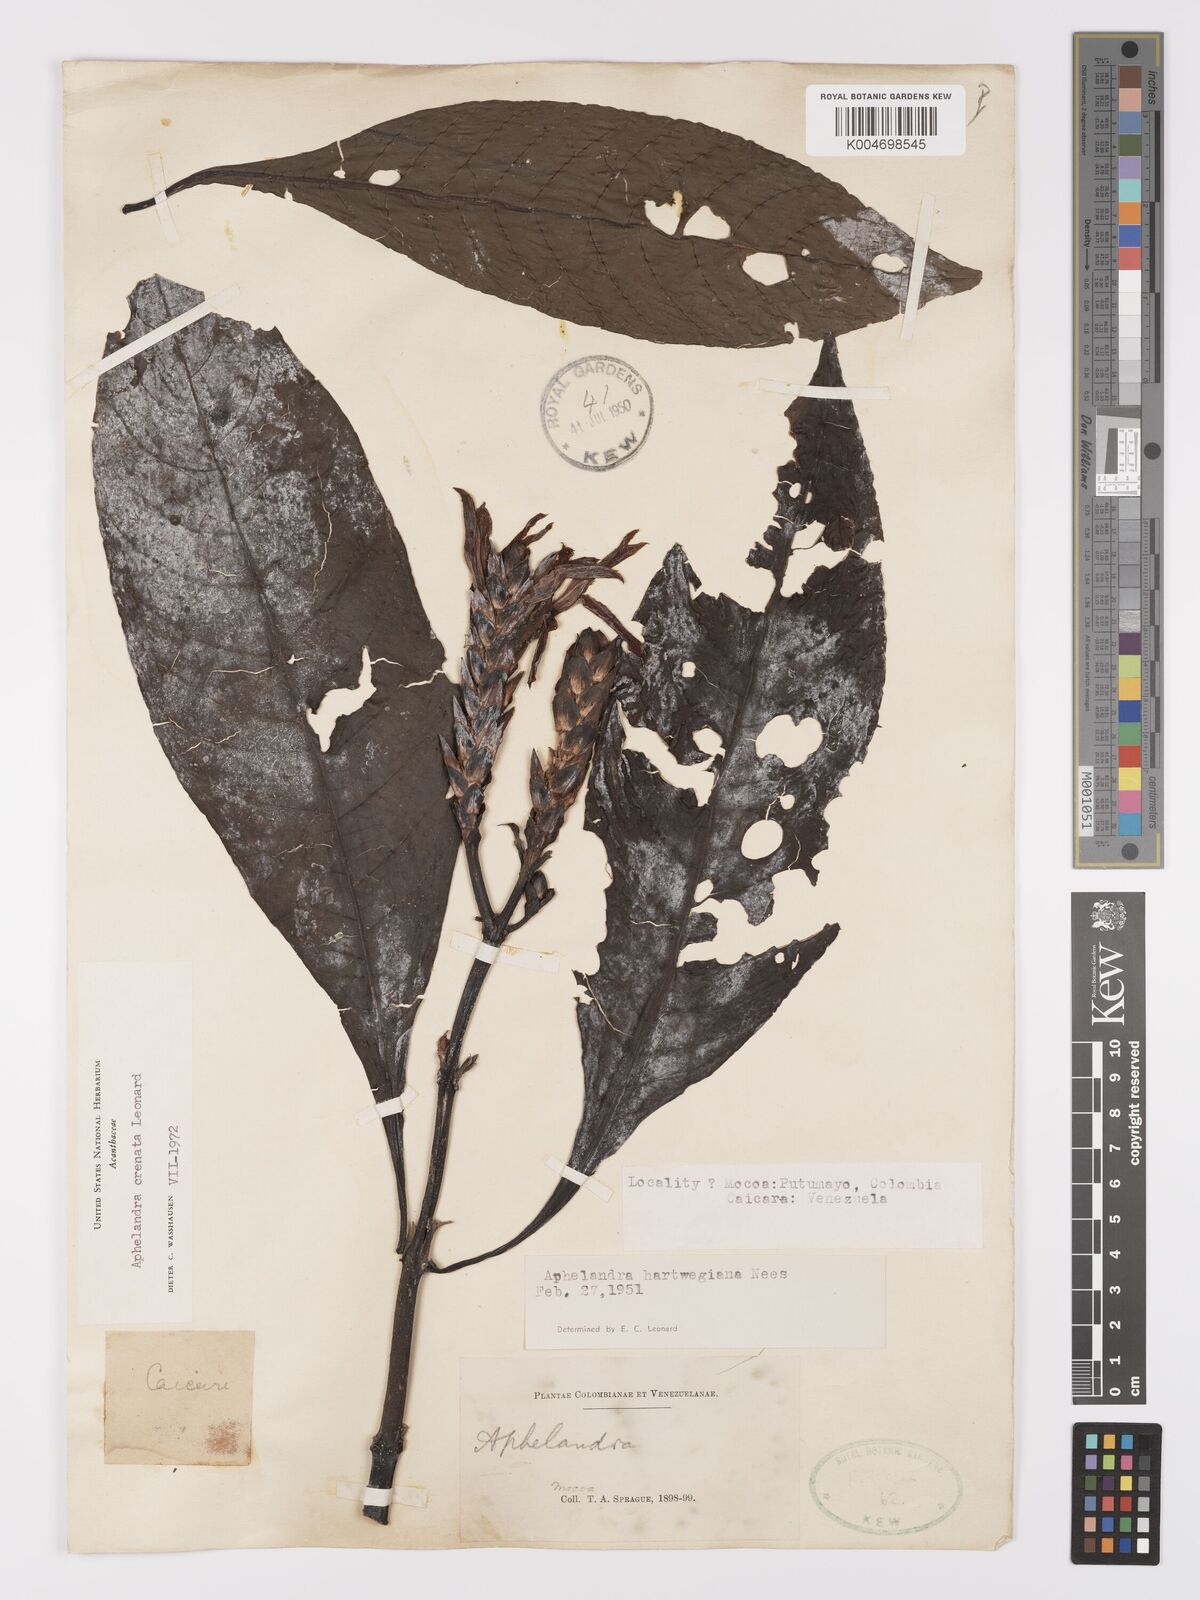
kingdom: Plantae
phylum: Tracheophyta
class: Magnoliopsida
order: Lamiales
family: Acanthaceae
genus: Aphelandra
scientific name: Aphelandra hartwegiana
